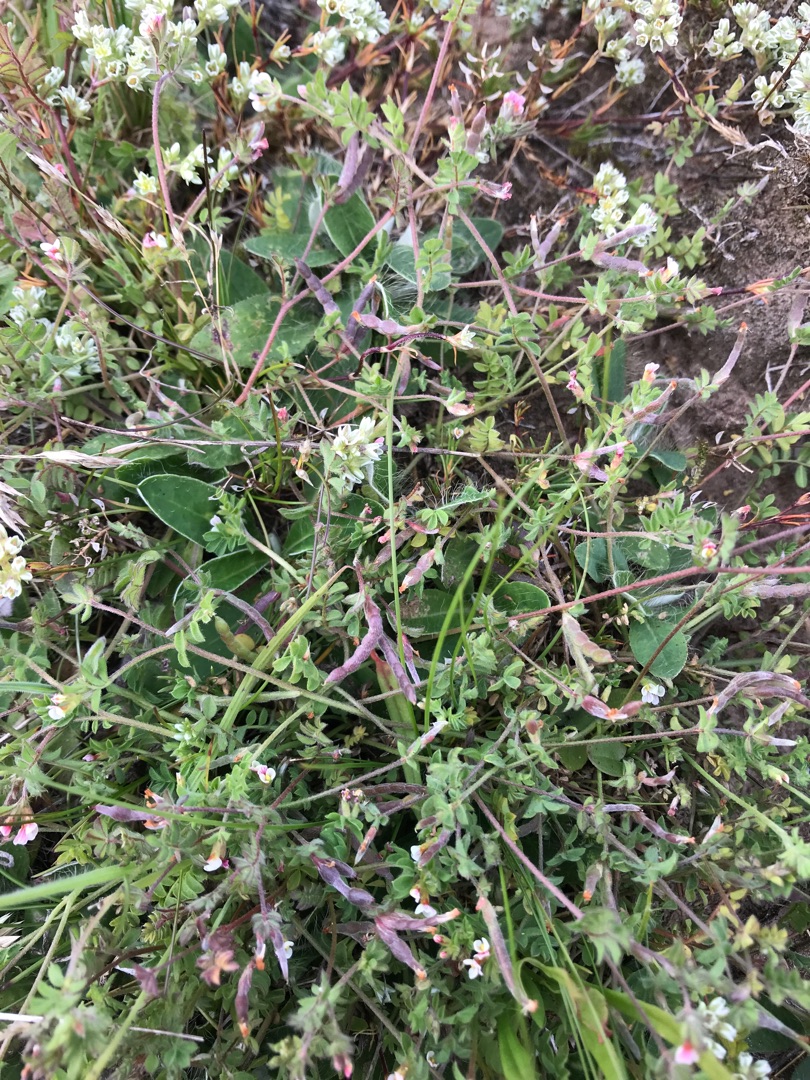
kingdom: Plantae
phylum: Tracheophyta
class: Magnoliopsida
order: Fabales
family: Fabaceae
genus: Ornithopus
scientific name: Ornithopus perpusillus
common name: Liden fugleklo
